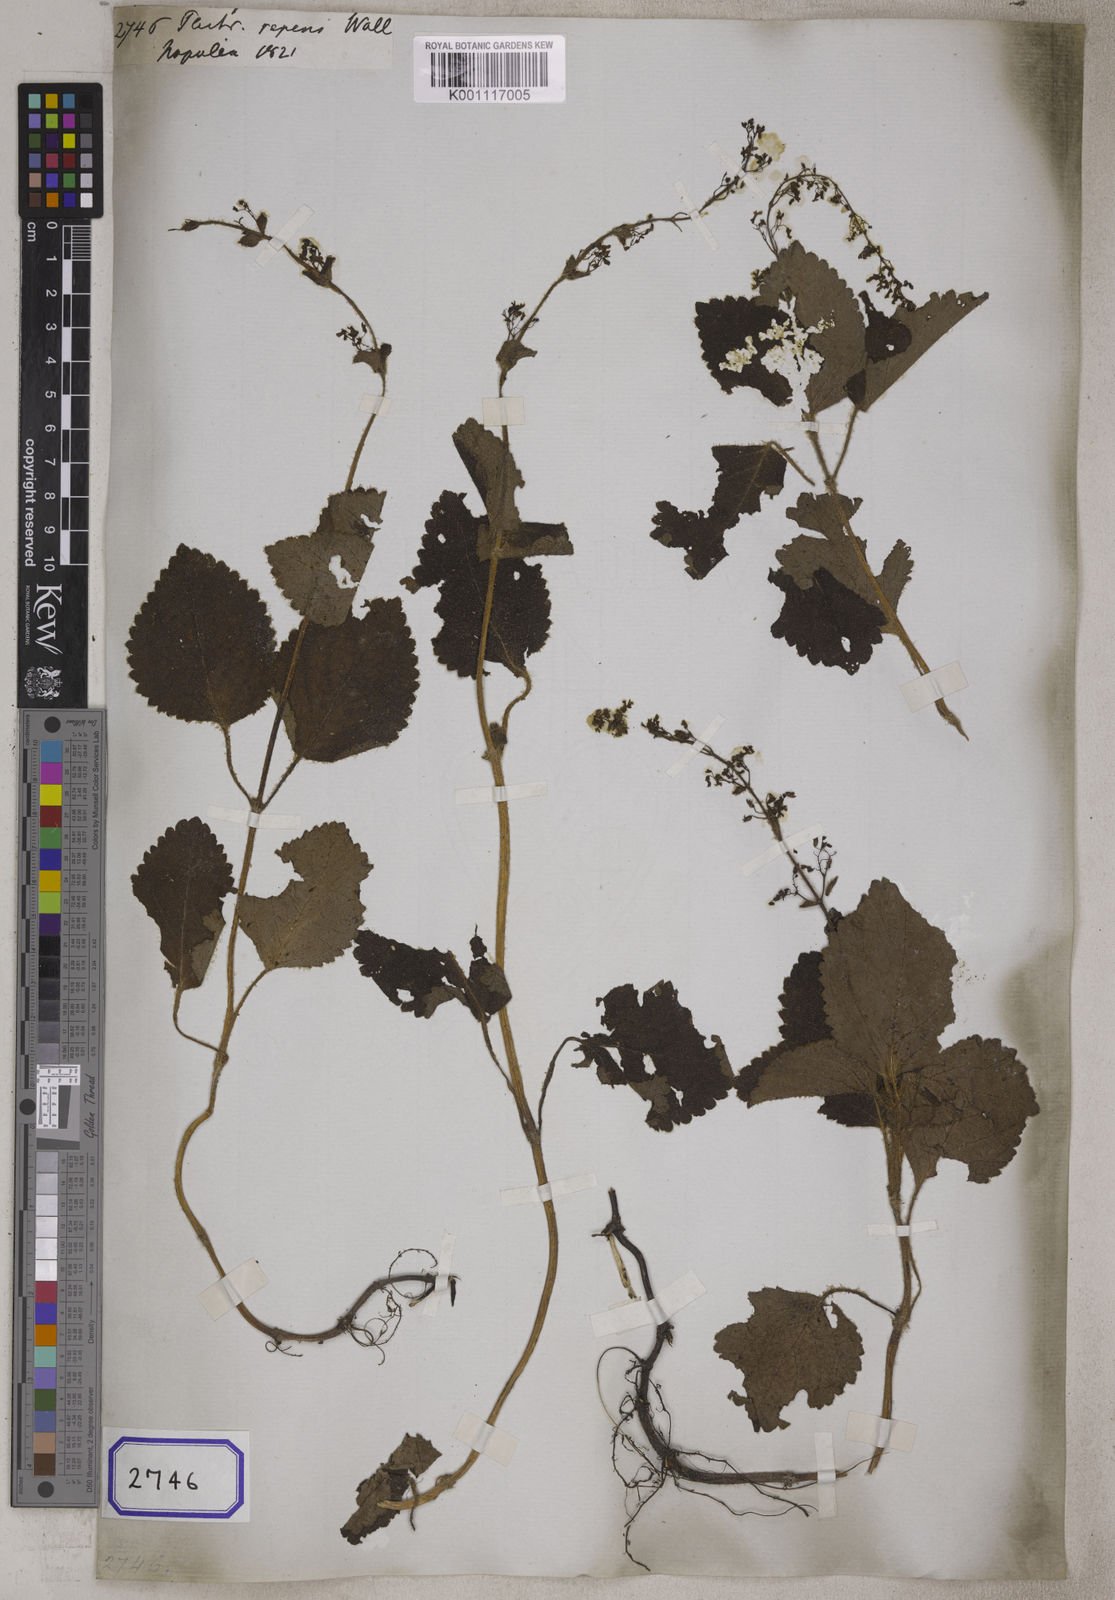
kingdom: Plantae
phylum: Tracheophyta
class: Magnoliopsida
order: Lamiales
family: Lamiaceae
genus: Plectranthus
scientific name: Plectranthus
